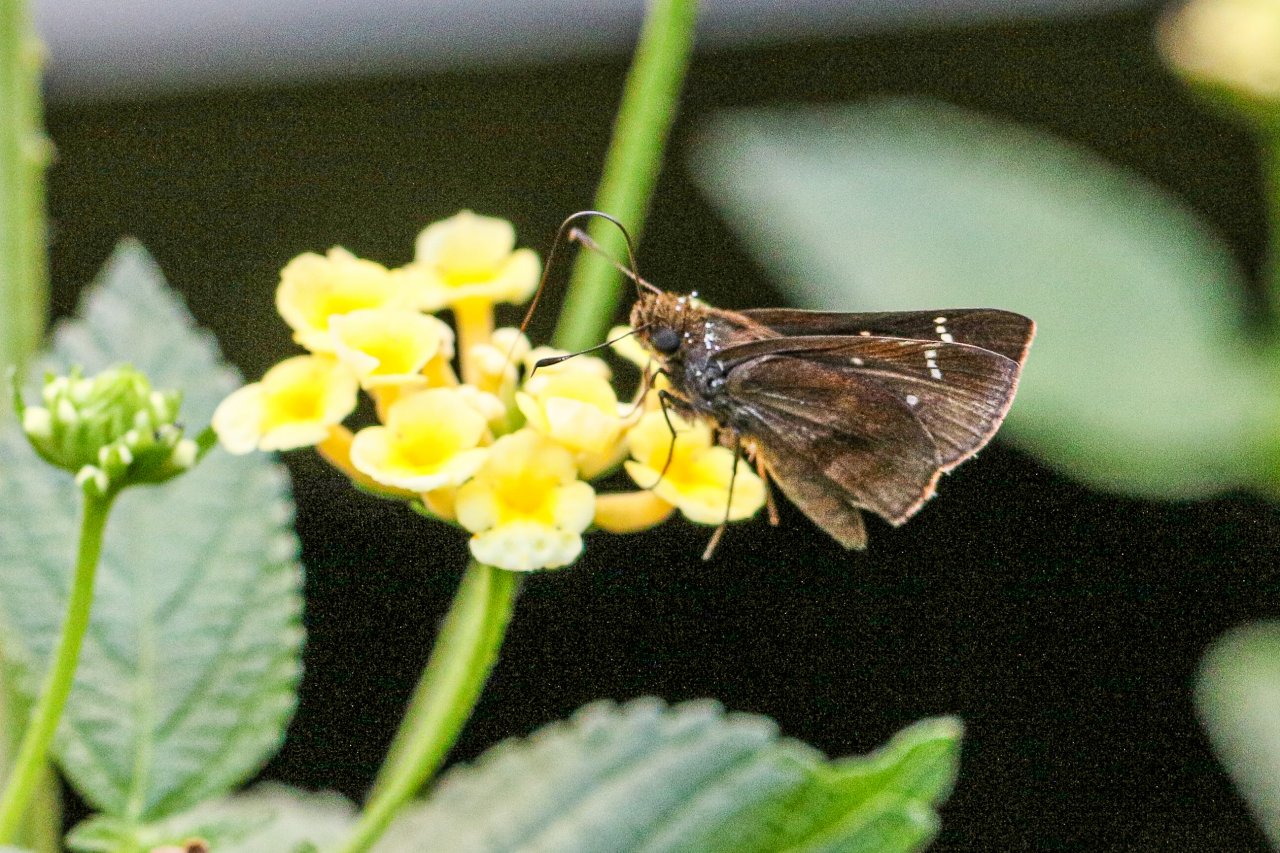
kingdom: Animalia
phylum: Arthropoda
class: Insecta
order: Lepidoptera
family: Hesperiidae
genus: Lerema
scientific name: Lerema accius
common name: Clouded Skipper
